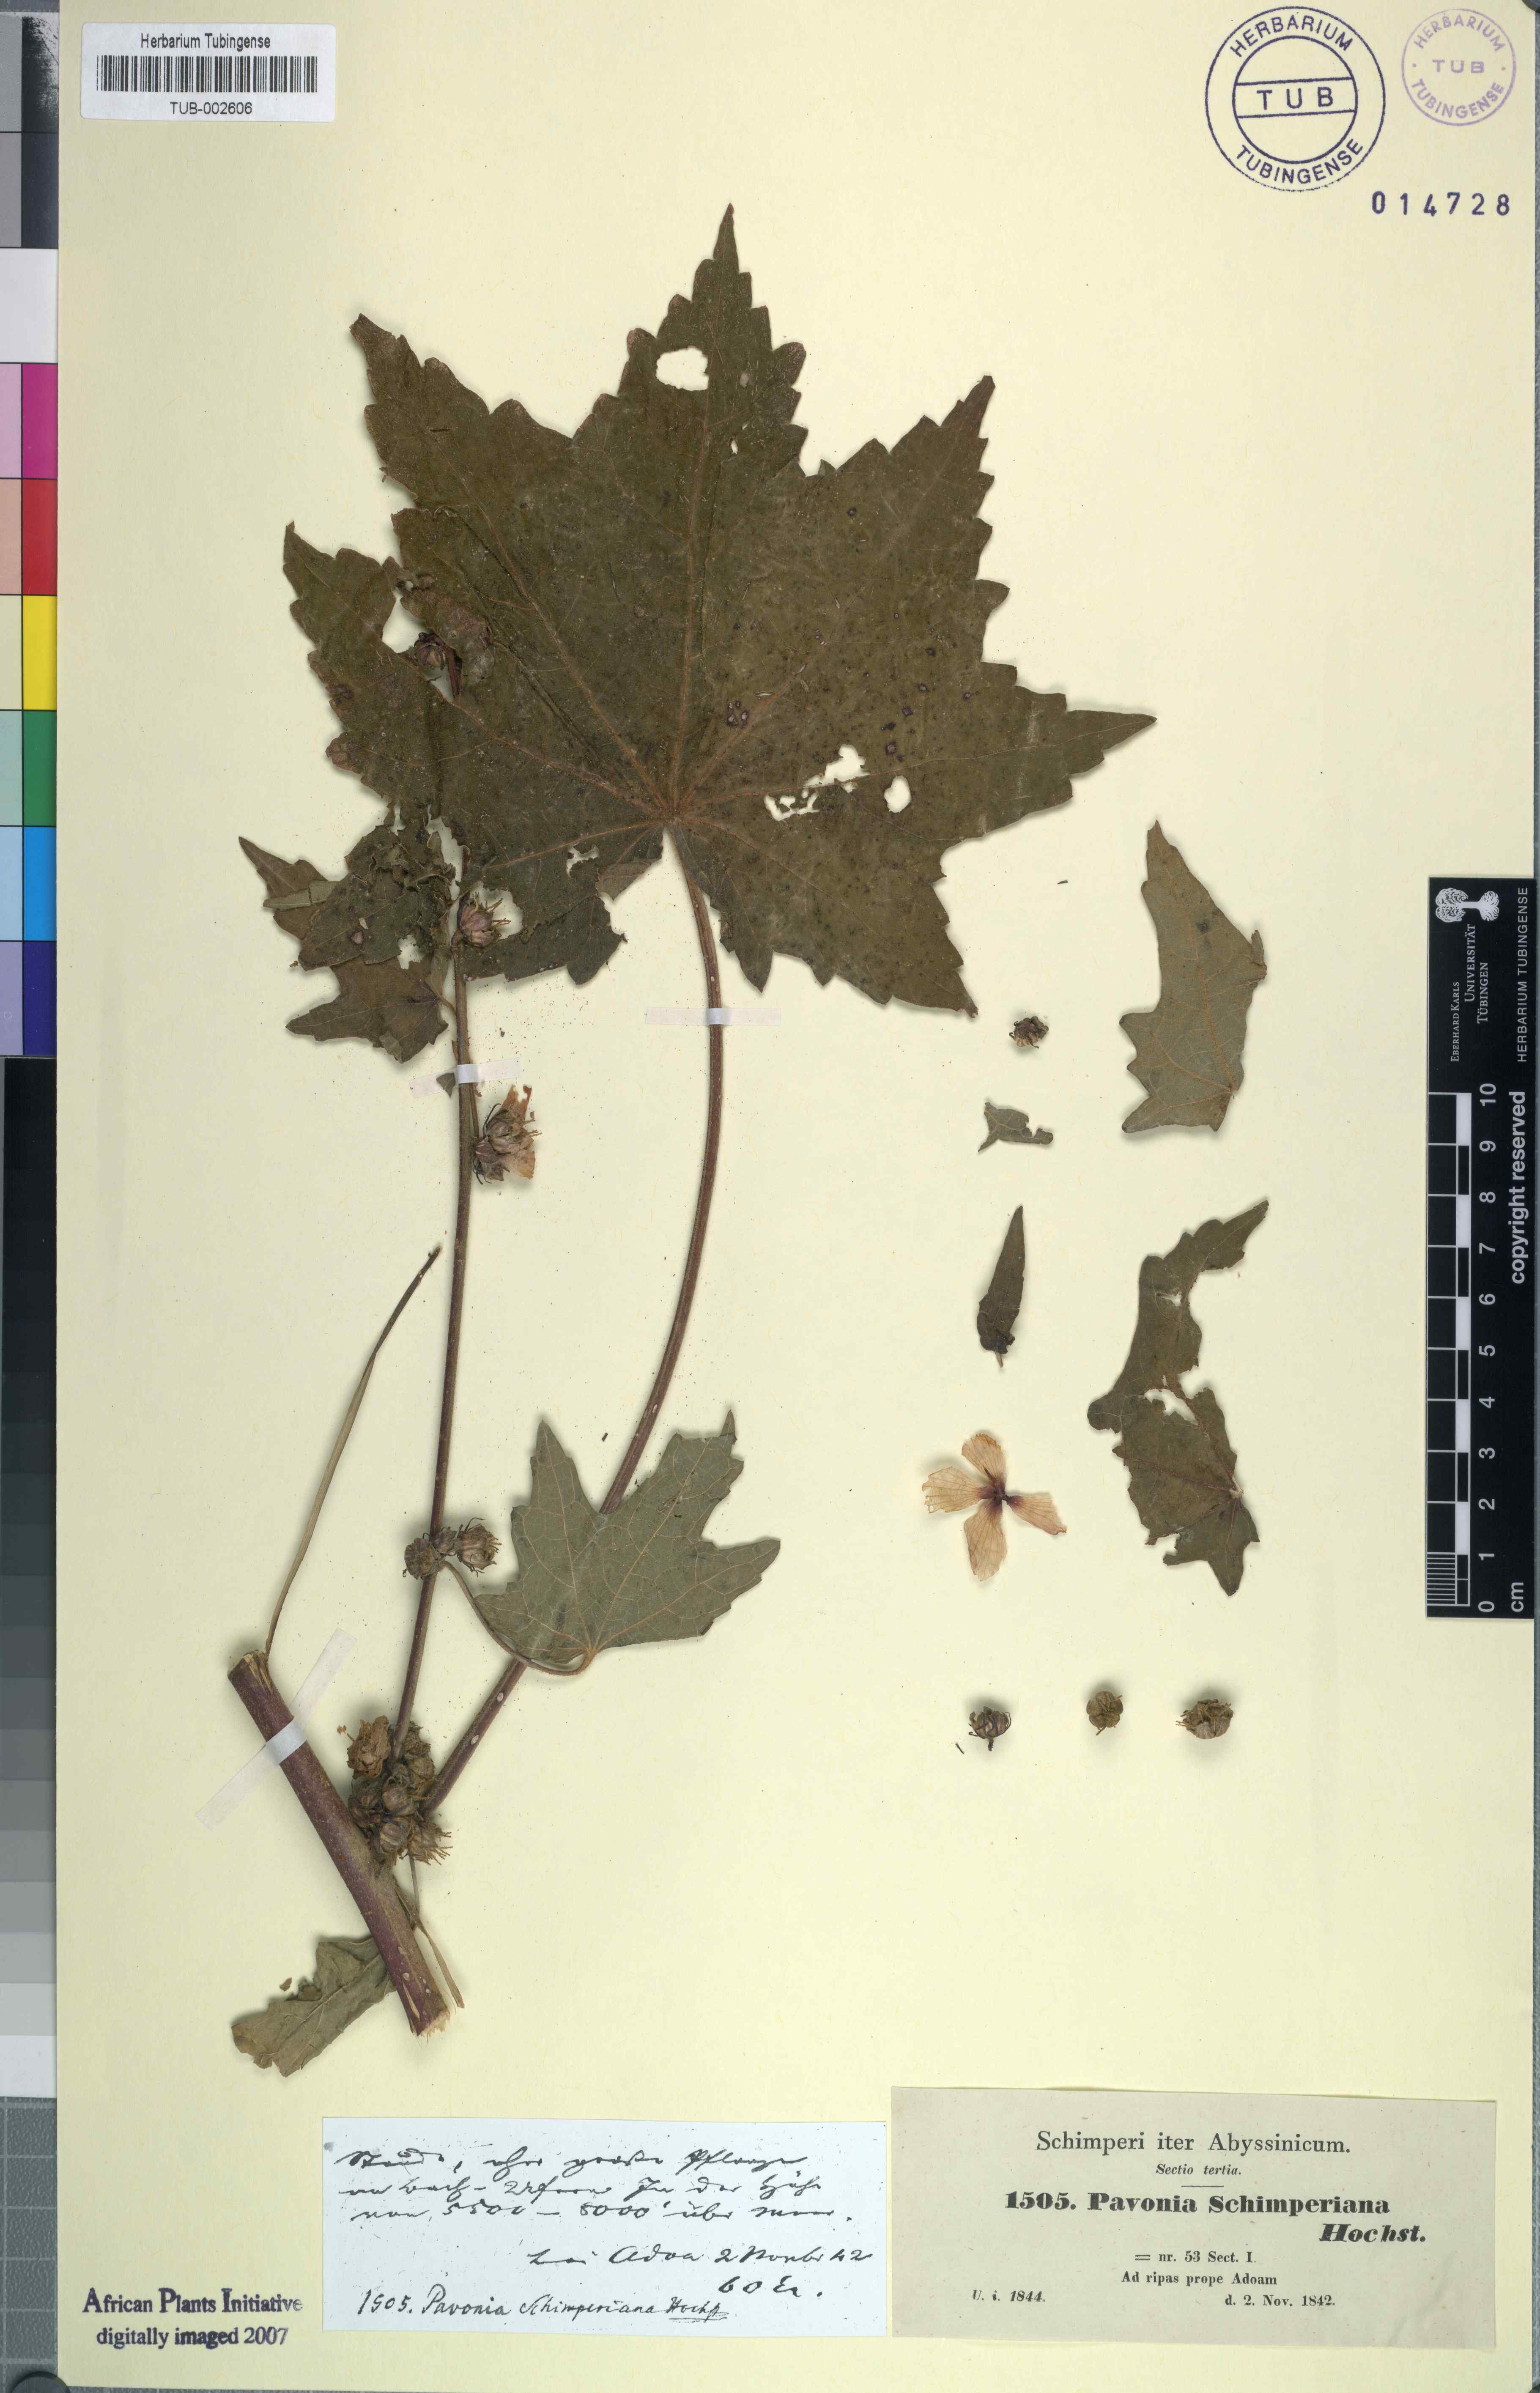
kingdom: Plantae
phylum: Tracheophyta
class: Magnoliopsida
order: Malvales
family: Malvaceae
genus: Pavonia
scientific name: Pavonia schimperiana
